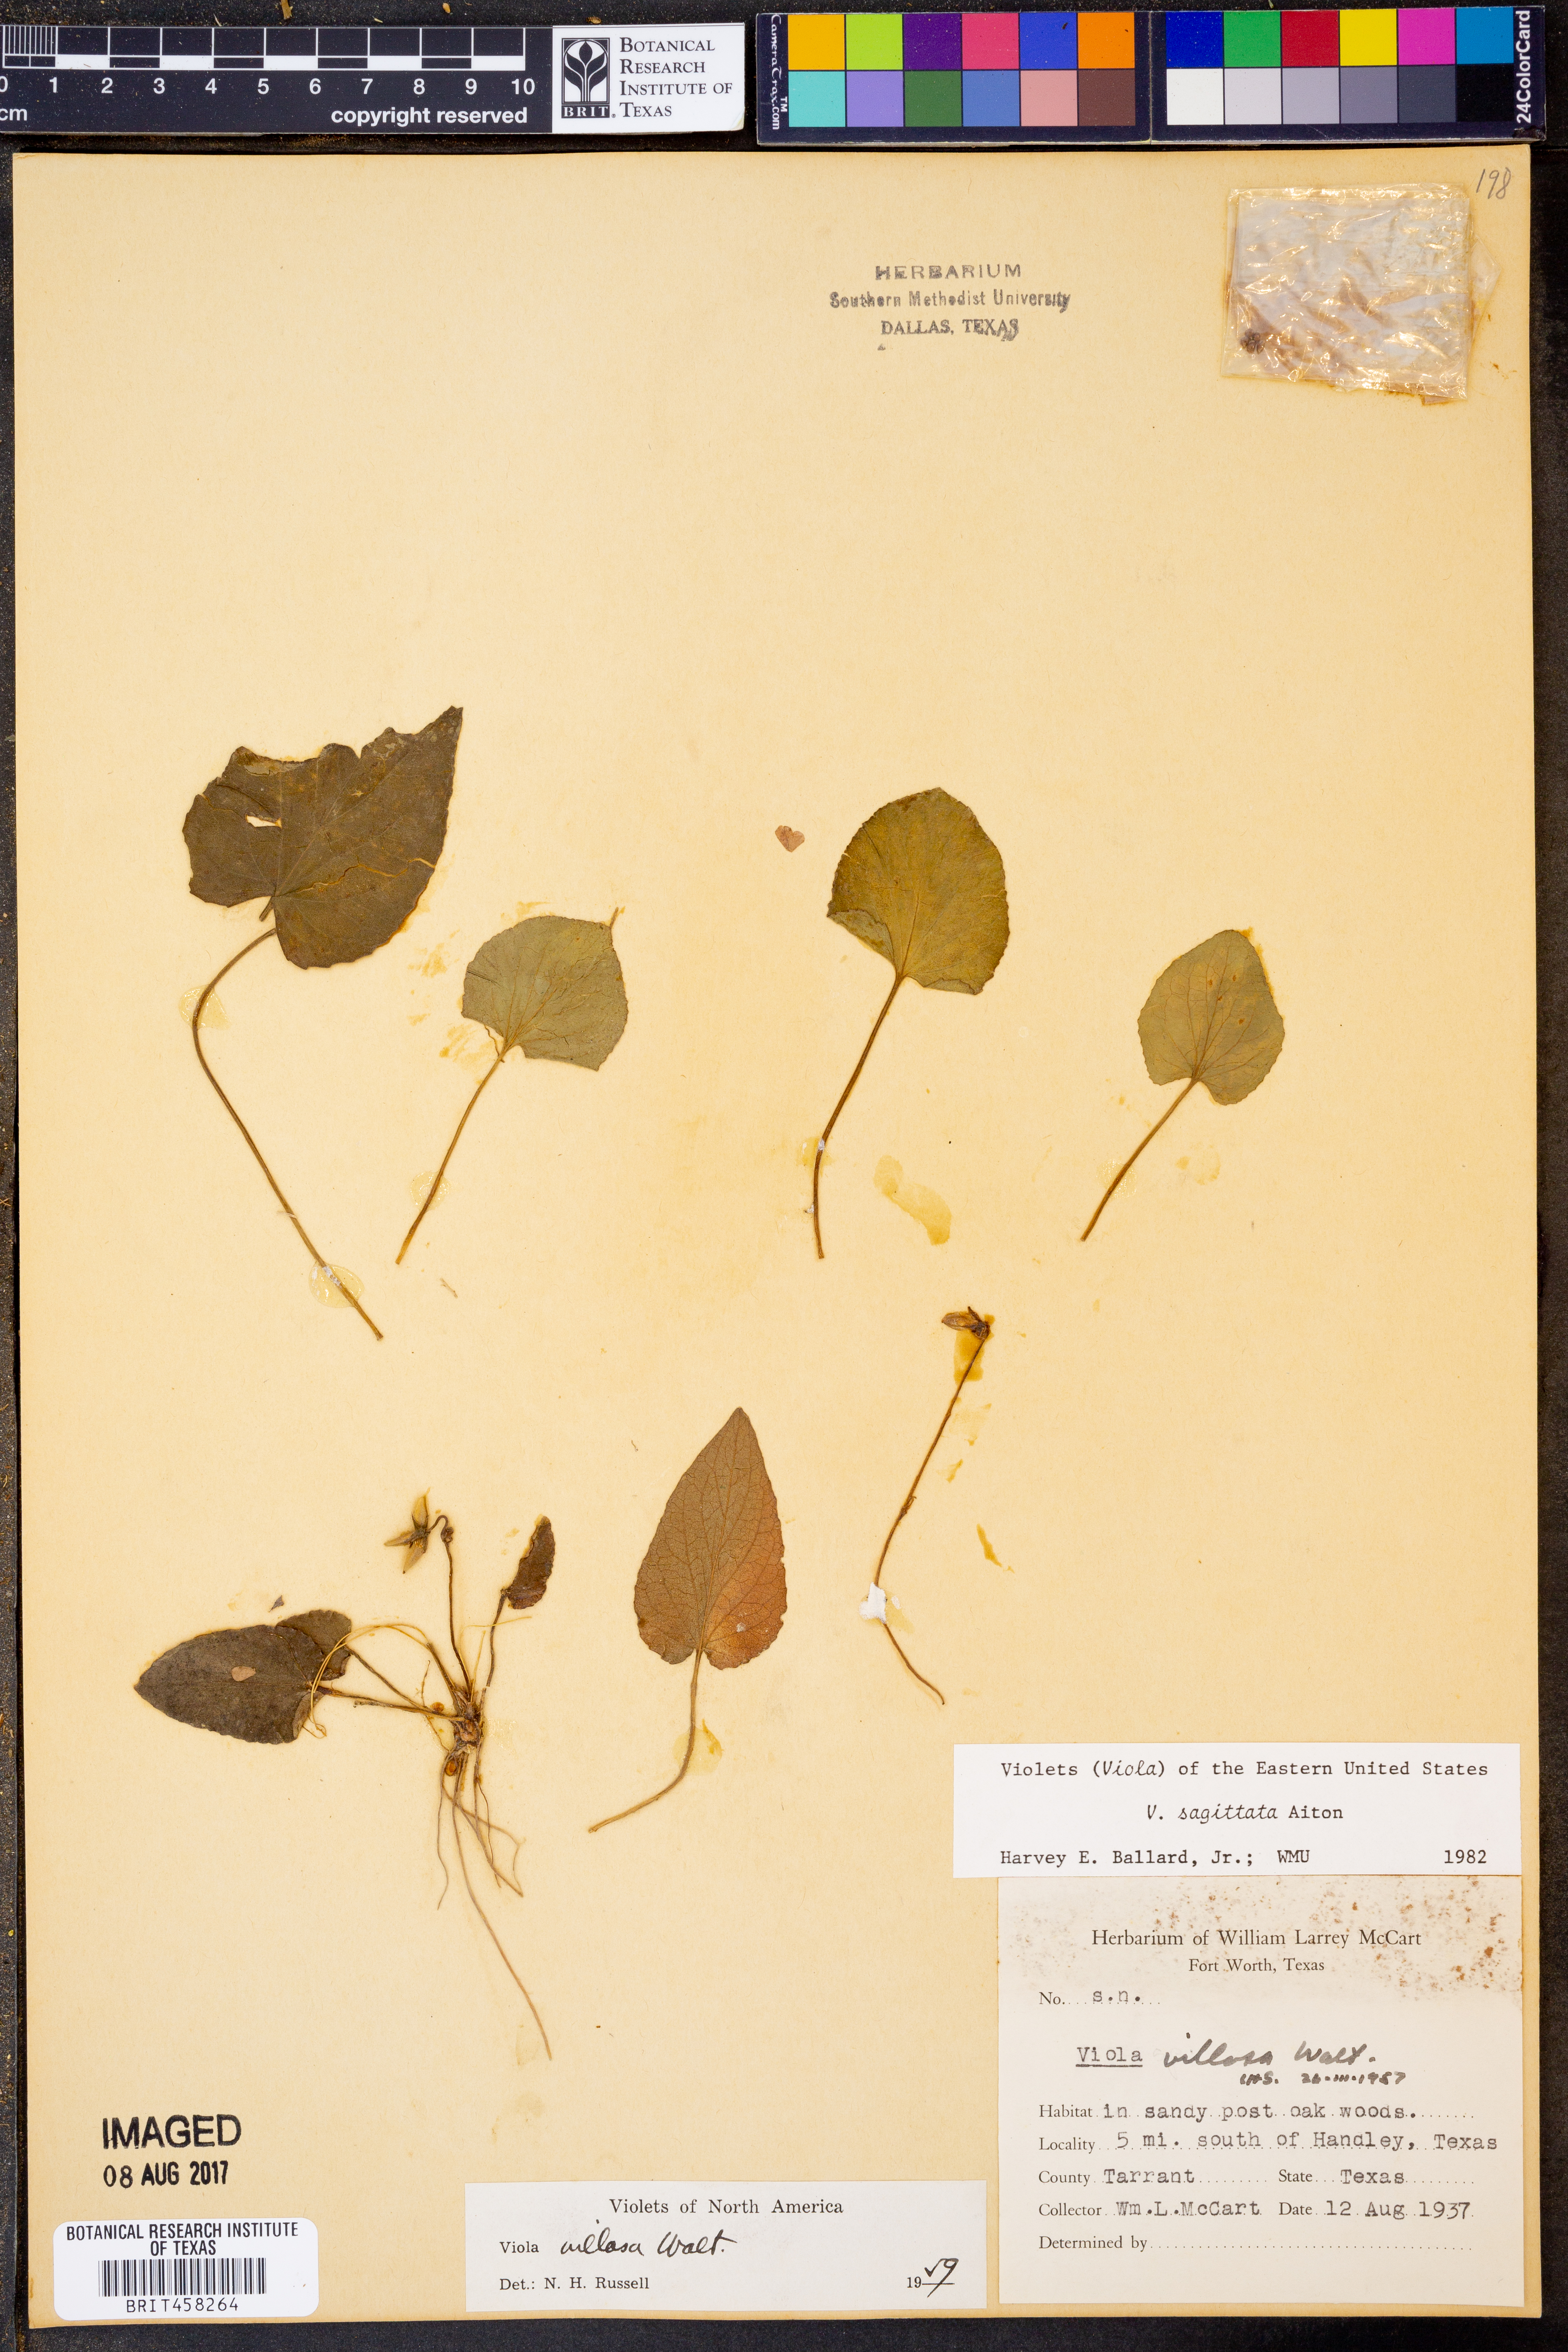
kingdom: Plantae
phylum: Tracheophyta
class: Magnoliopsida
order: Malpighiales
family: Violaceae
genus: Viola
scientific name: Viola sagittata
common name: Arrowhead violet
